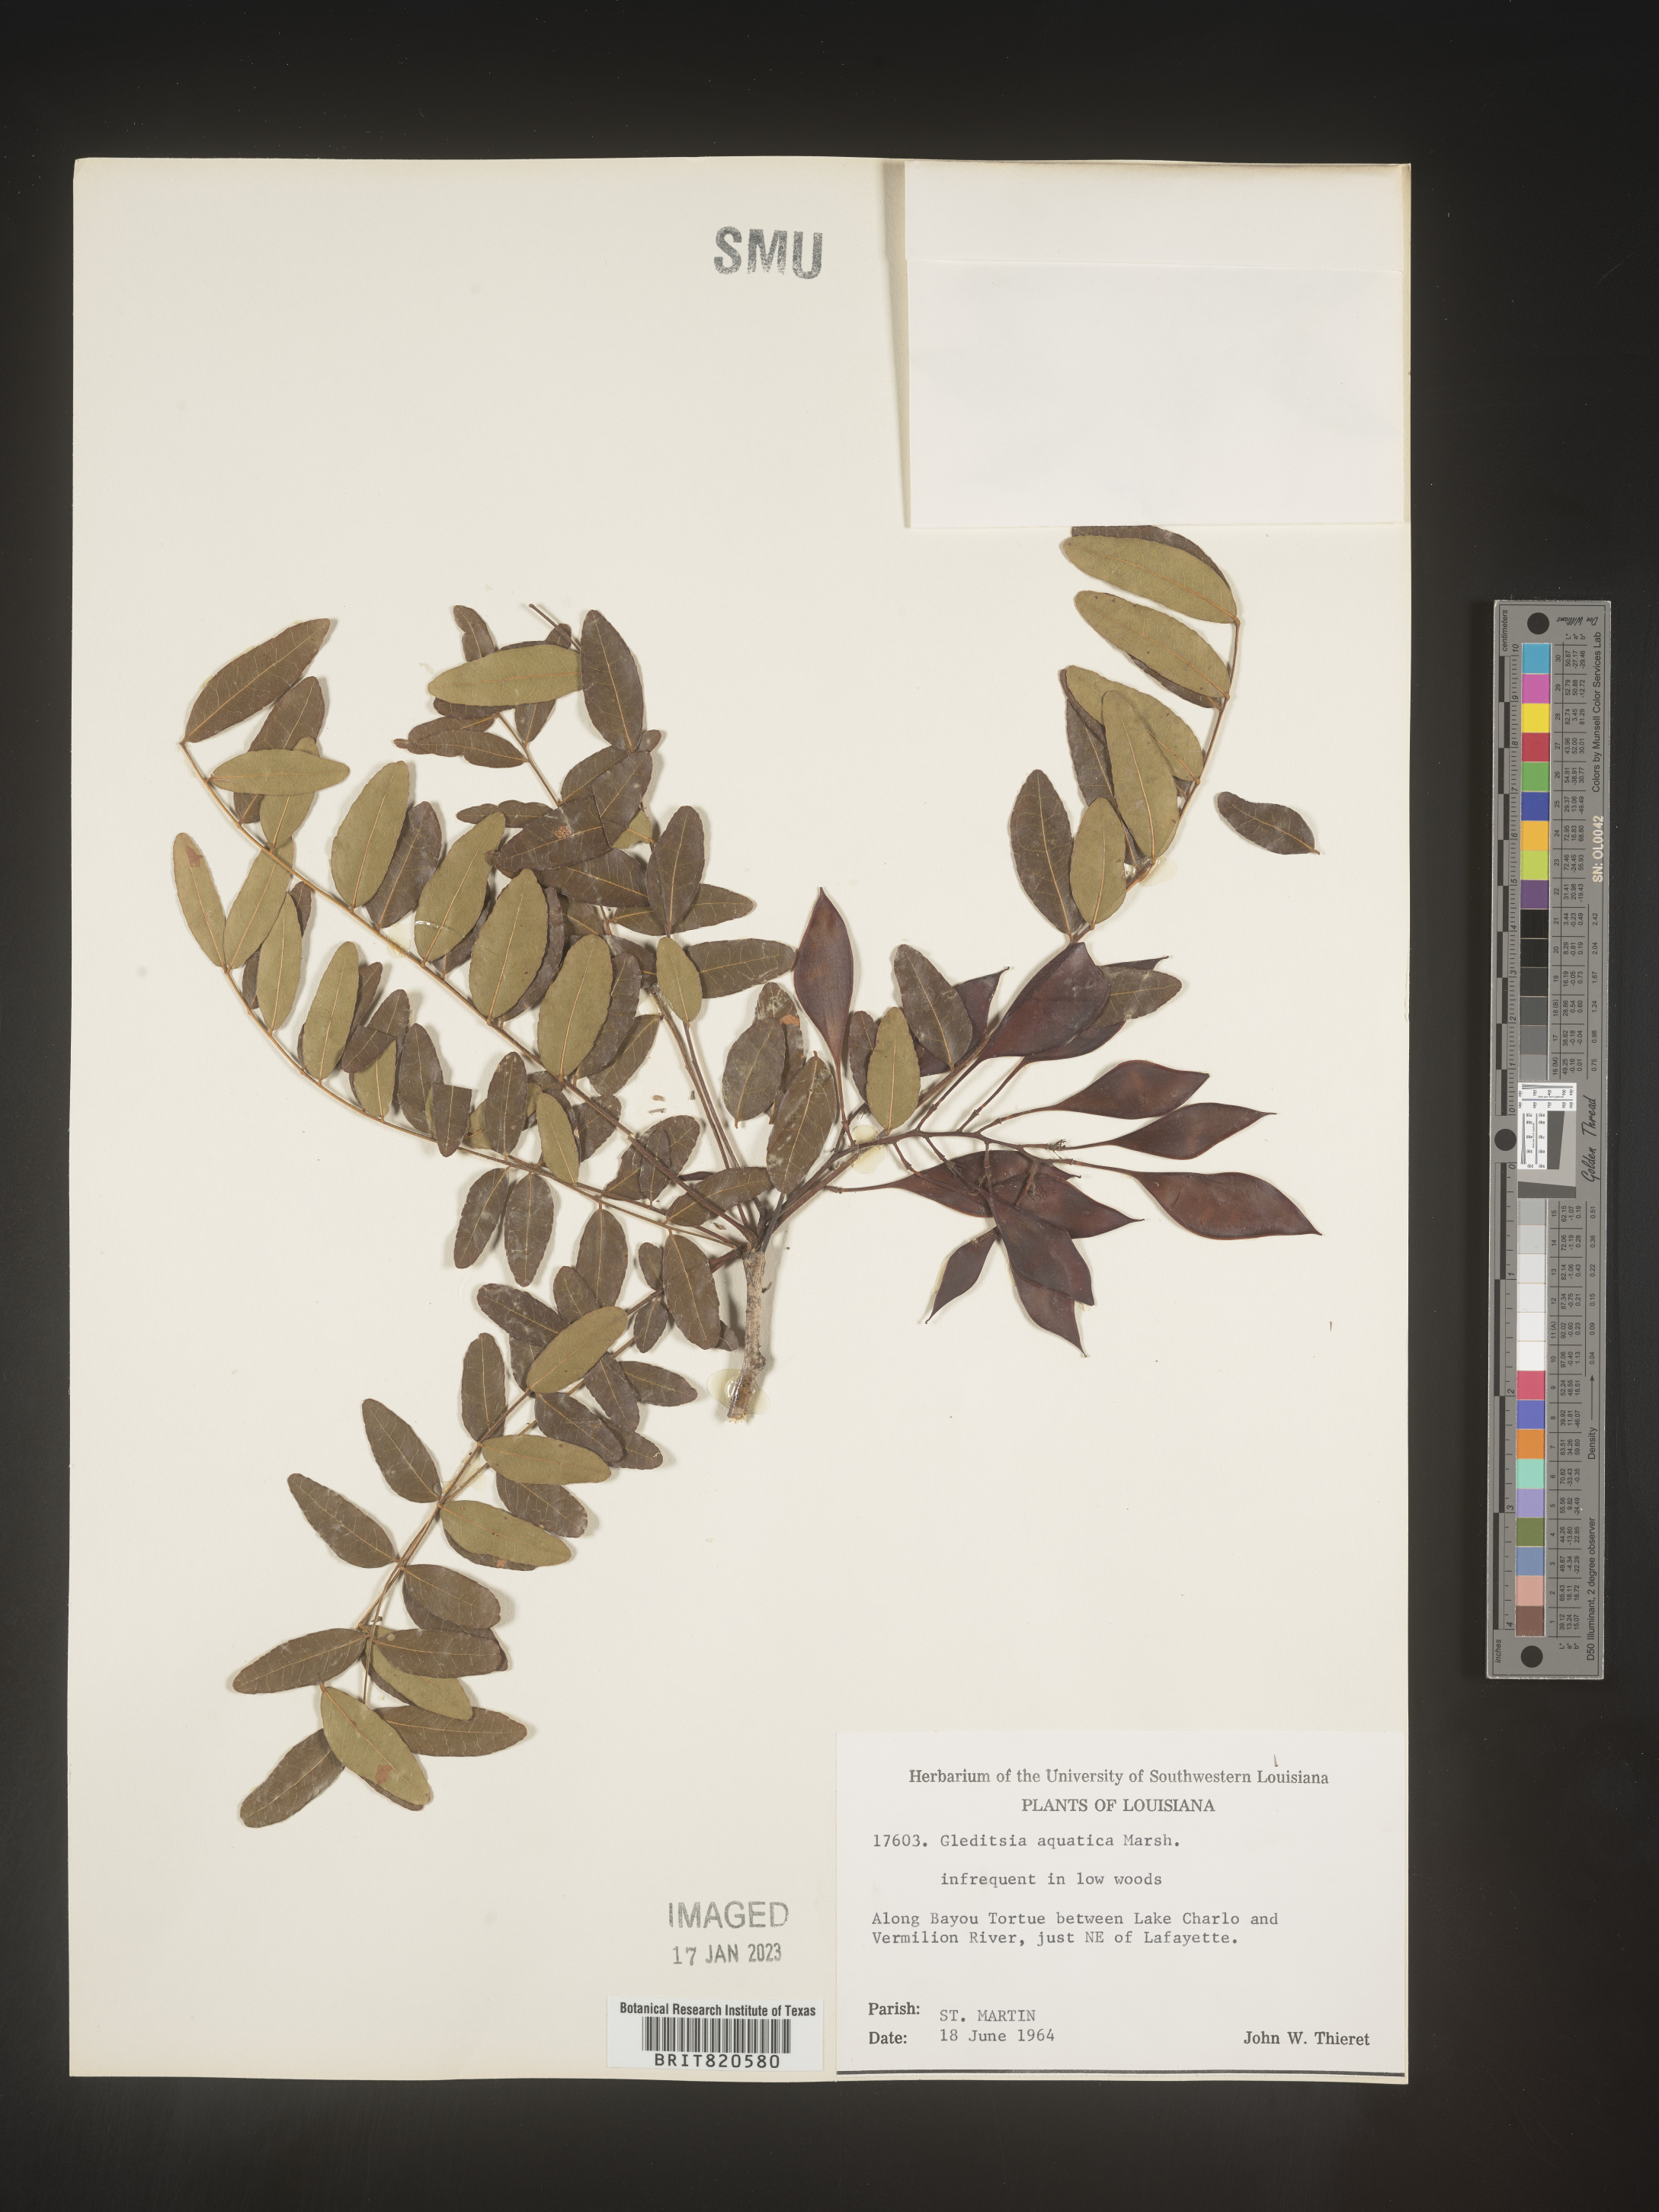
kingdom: Plantae
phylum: Tracheophyta
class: Magnoliopsida
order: Fabales
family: Fabaceae
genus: Gleditsia
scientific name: Gleditsia aquatica
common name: Swamp-locust
